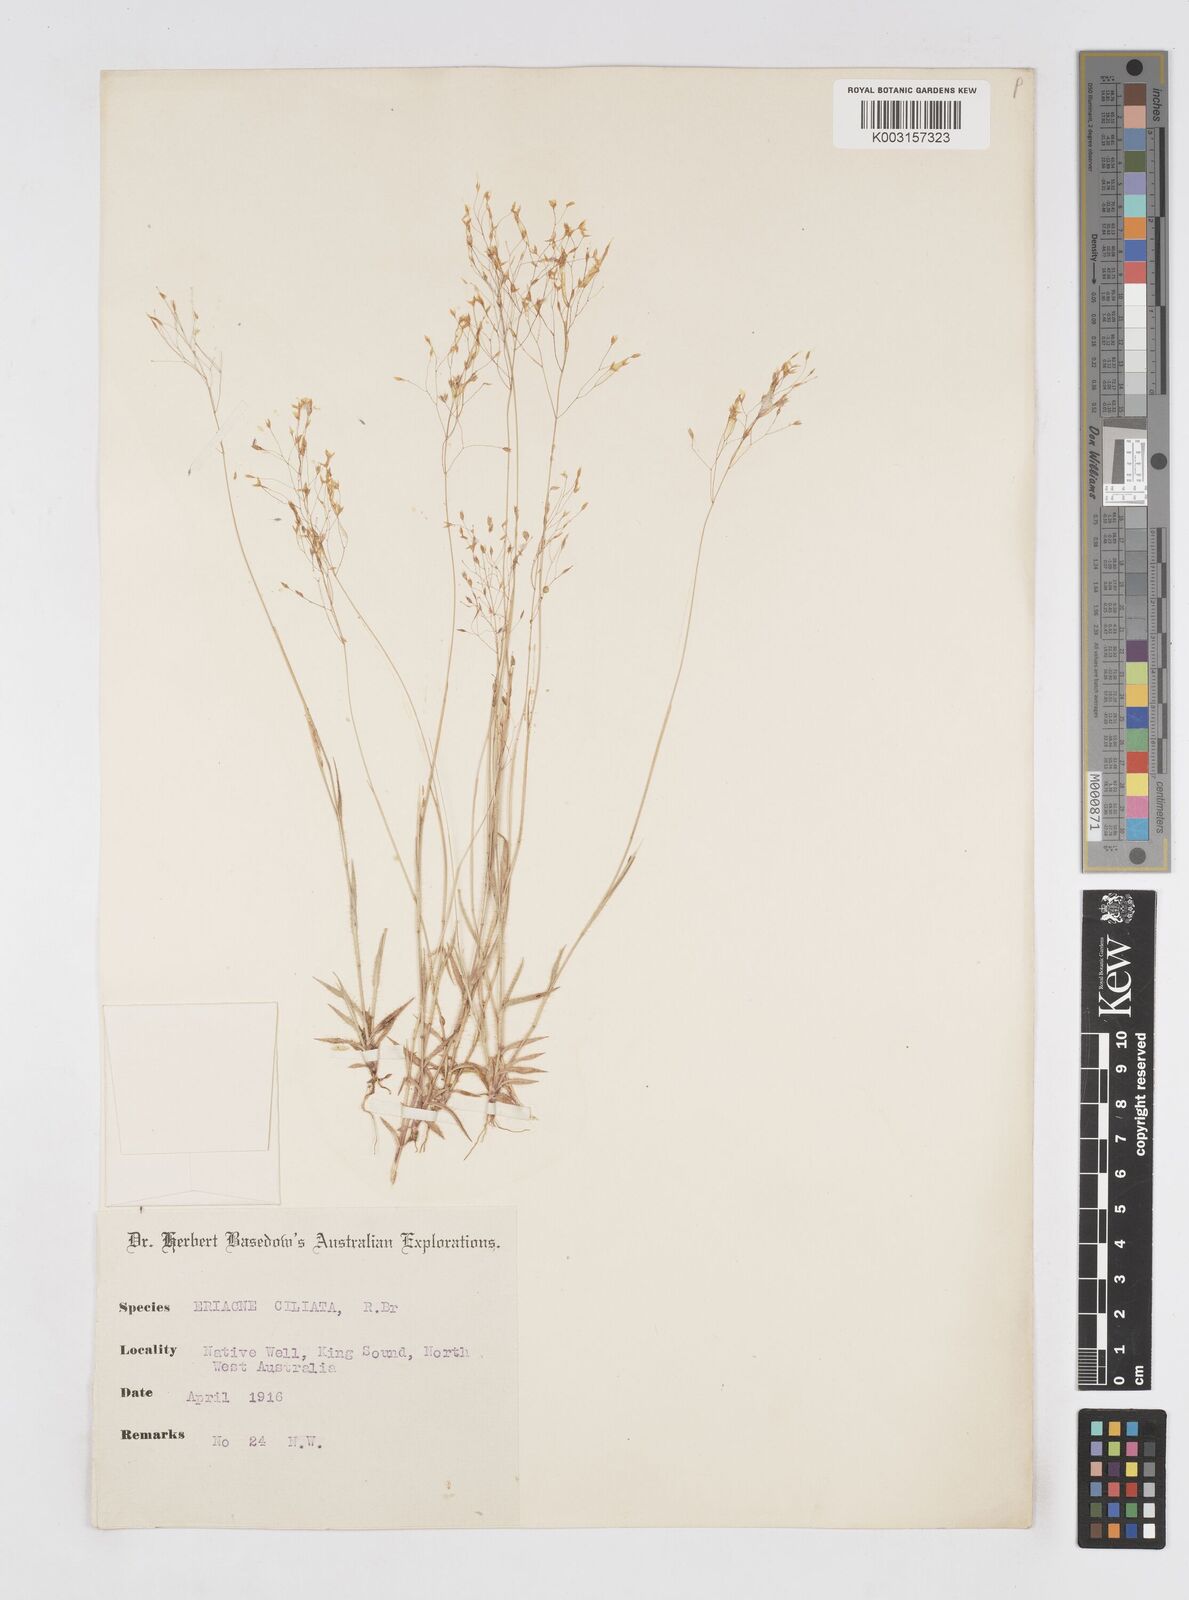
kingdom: Plantae
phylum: Tracheophyta
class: Liliopsida
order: Poales
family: Poaceae
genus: Eriachne
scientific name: Eriachne ciliata
